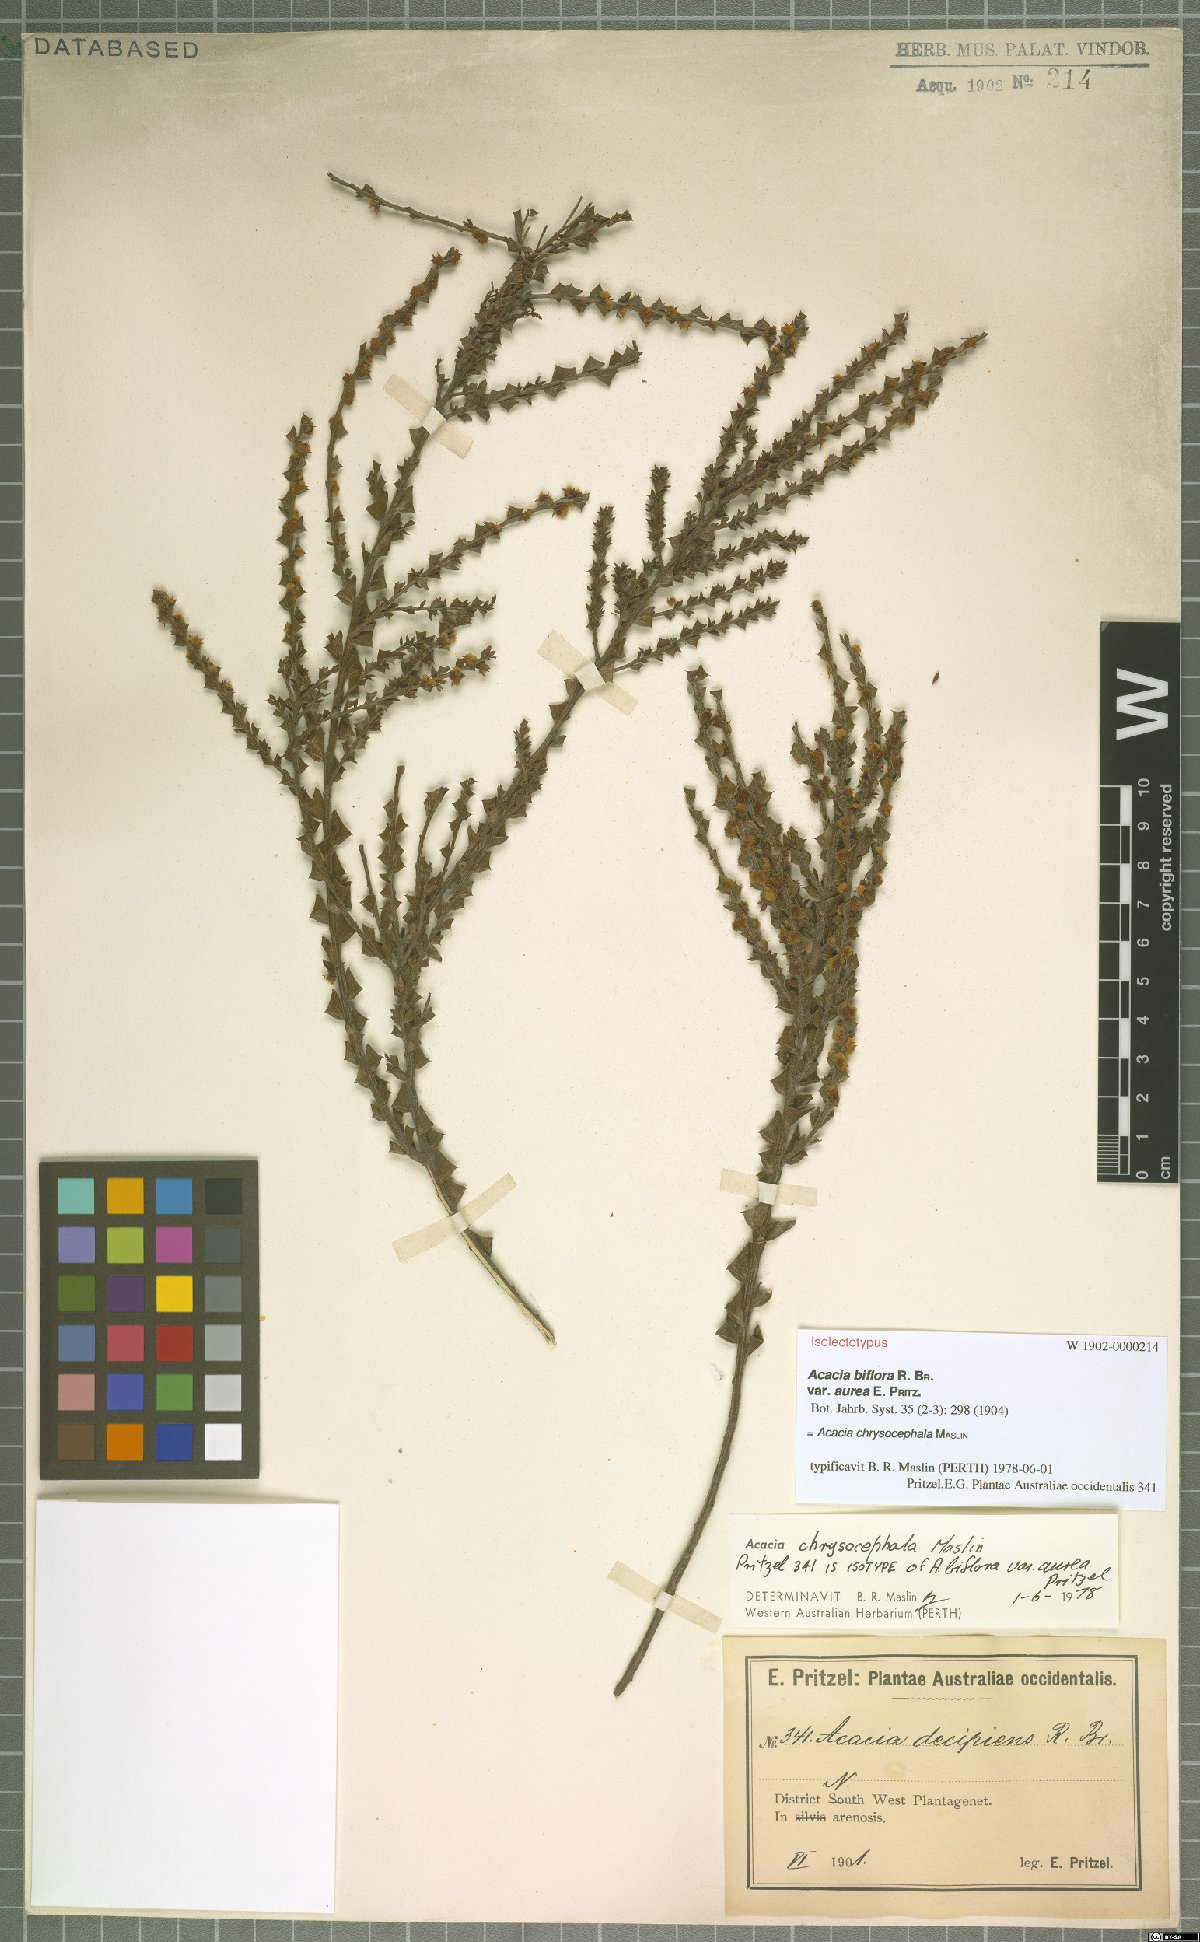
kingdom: Plantae
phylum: Tracheophyta
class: Magnoliopsida
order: Fabales
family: Fabaceae
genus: Acacia
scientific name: Acacia chrysocephala
